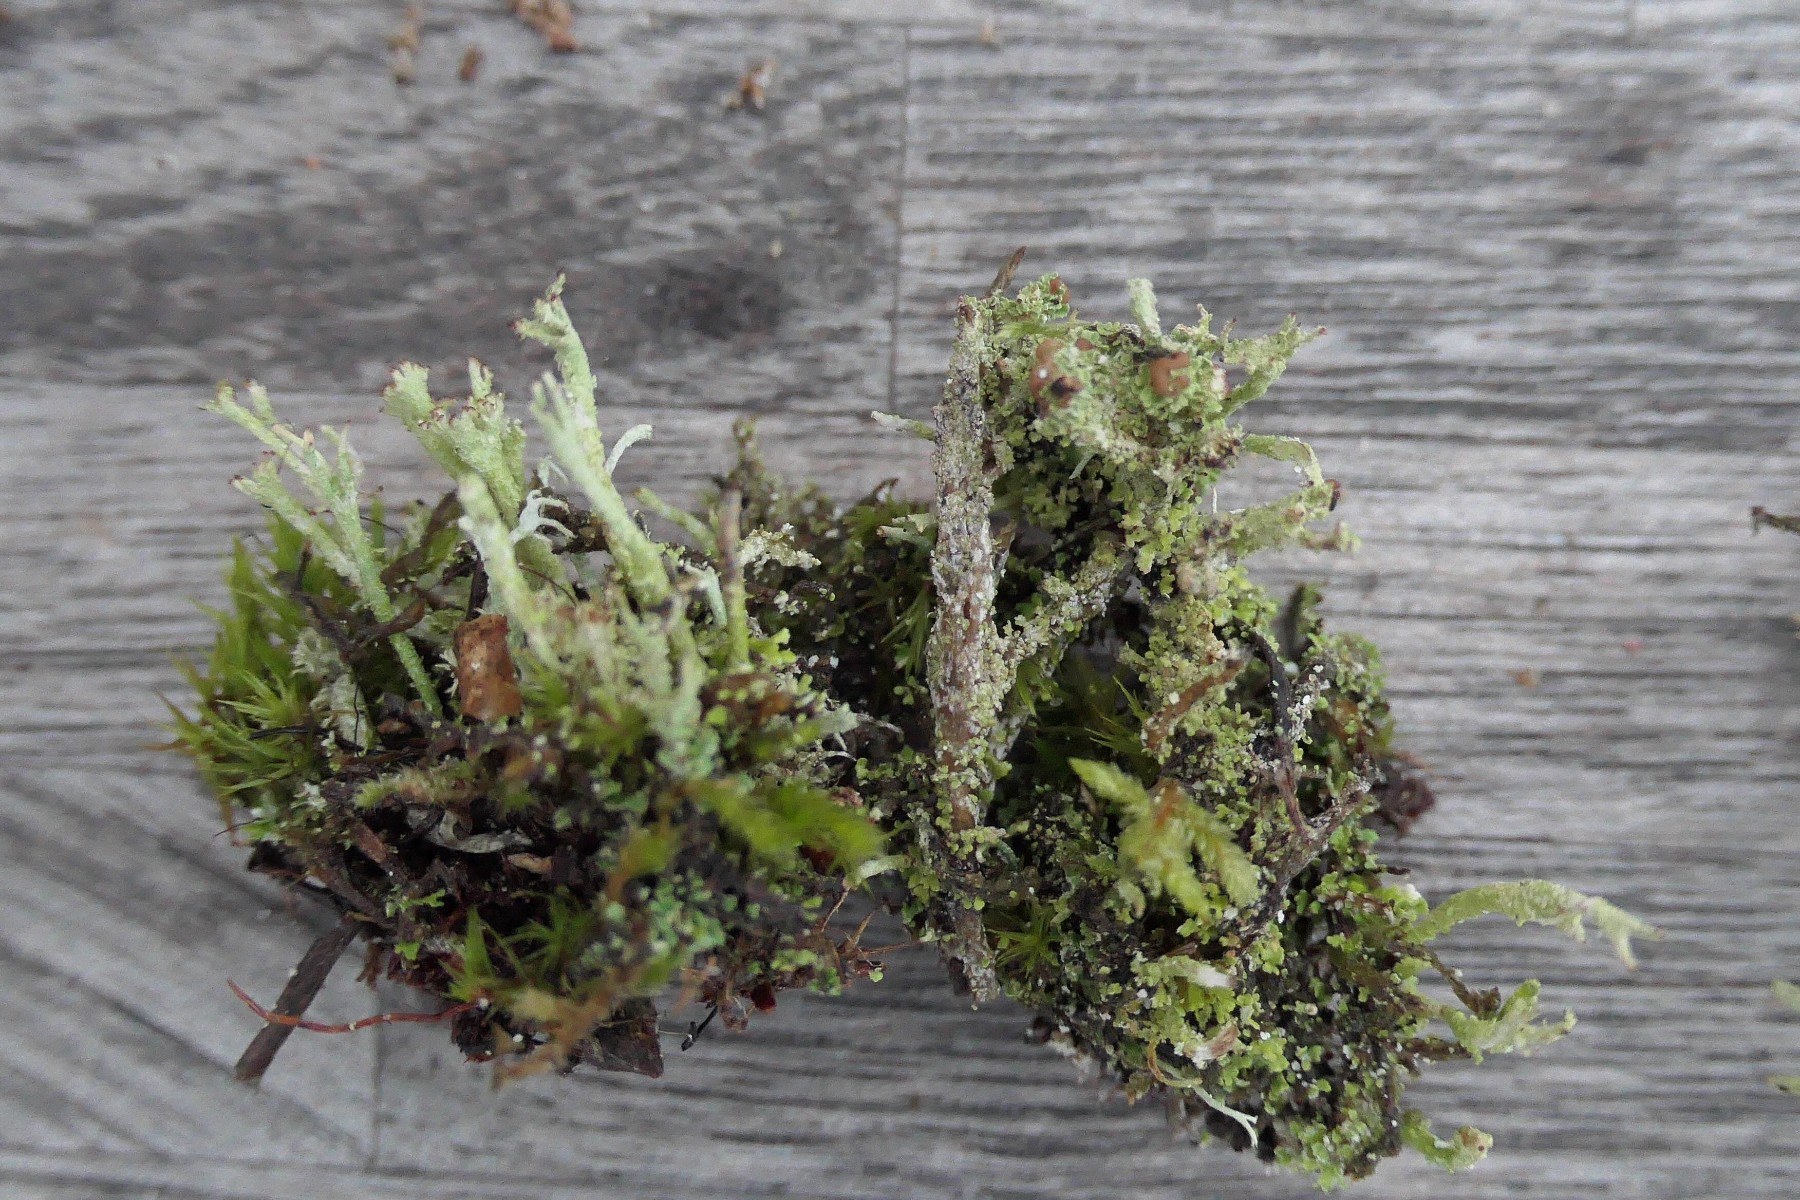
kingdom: Fungi
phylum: Ascomycota
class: Lecanoromycetes
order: Lecanorales
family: Cladoniaceae
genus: Cladonia
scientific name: Cladonia ramulosa
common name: kliddet bægerlav
